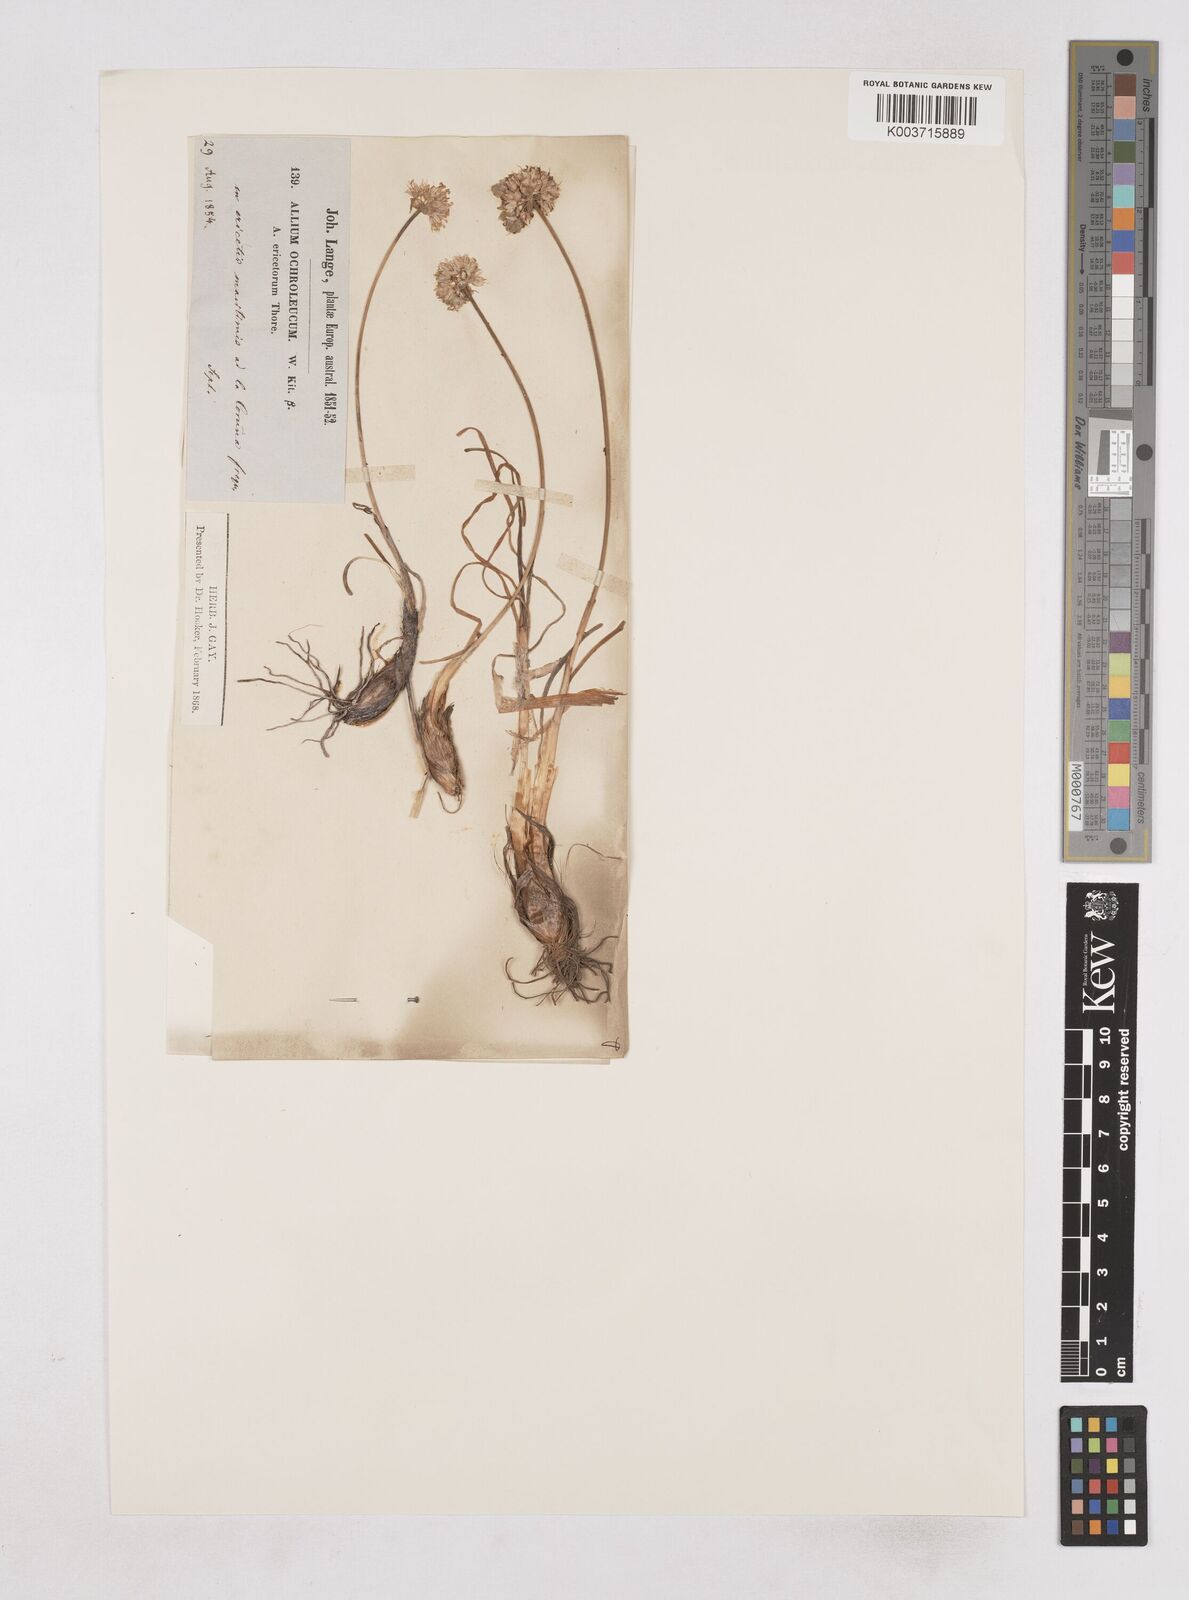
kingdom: Plantae
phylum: Tracheophyta
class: Liliopsida
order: Asparagales
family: Amaryllidaceae
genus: Allium
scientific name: Allium ericetorum
